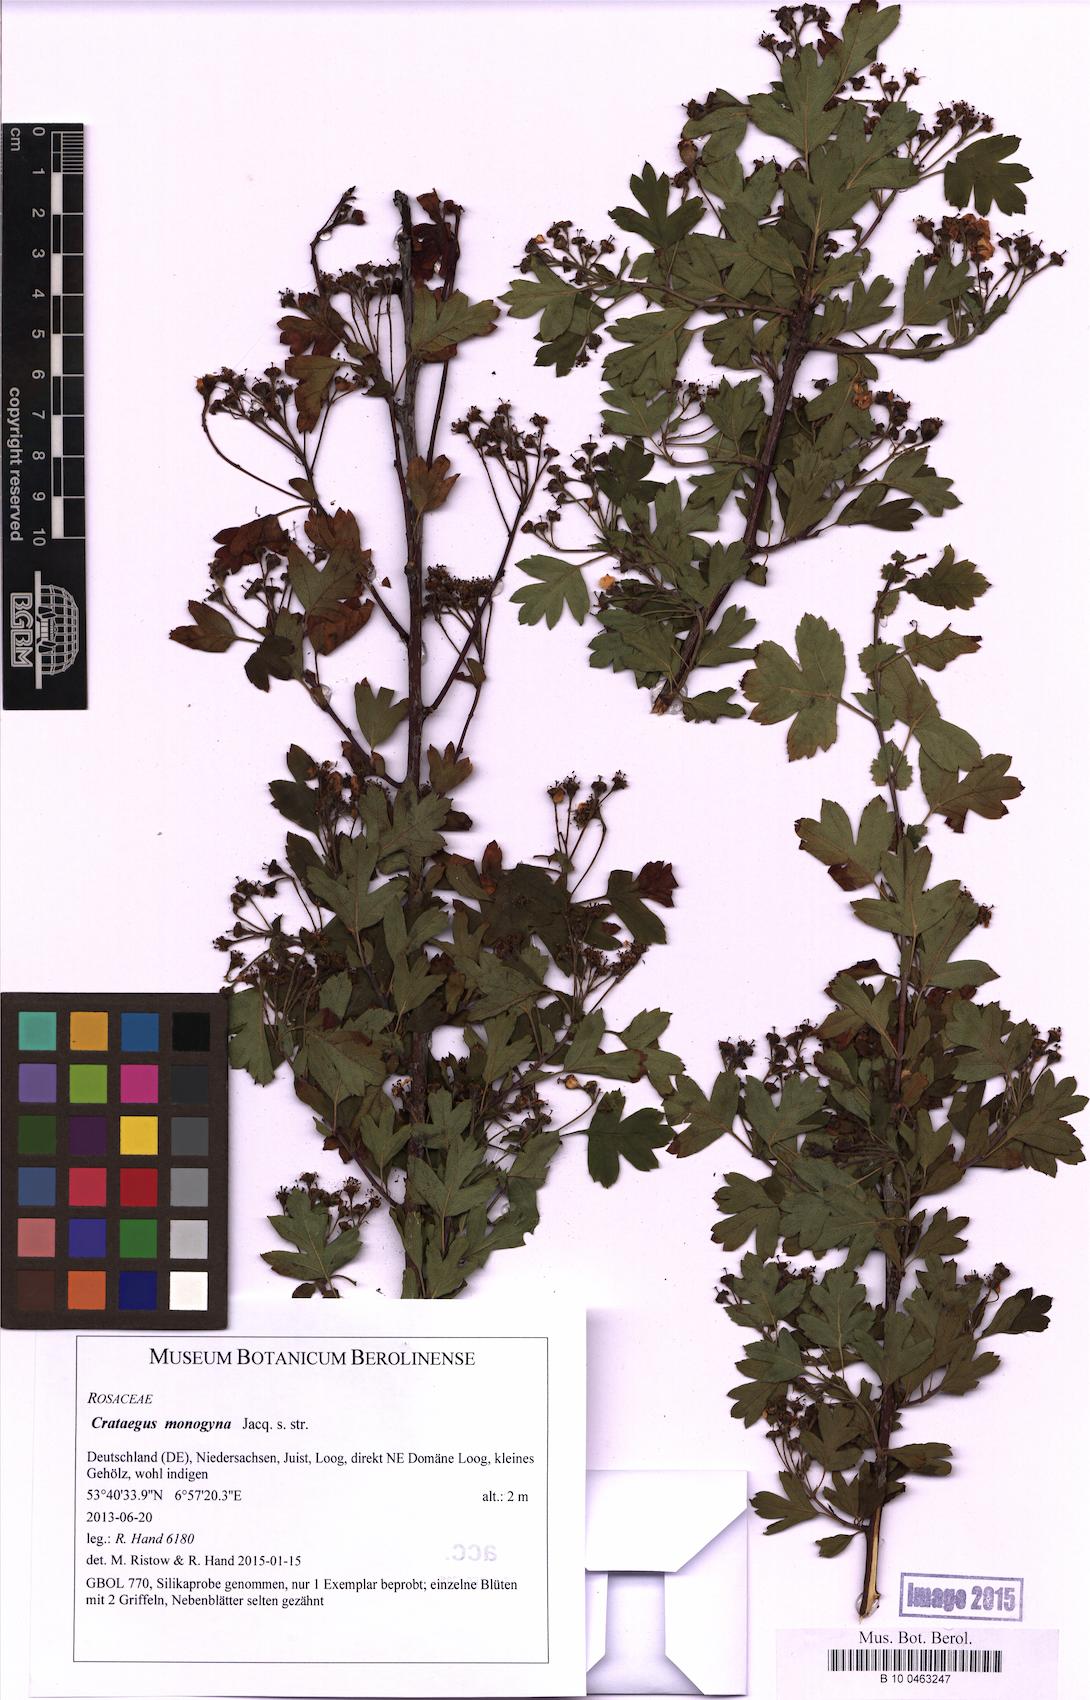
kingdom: Plantae
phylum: Tracheophyta
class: Magnoliopsida
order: Rosales
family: Rosaceae
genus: Crataegus
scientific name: Crataegus monogyna
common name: Hawthorn
